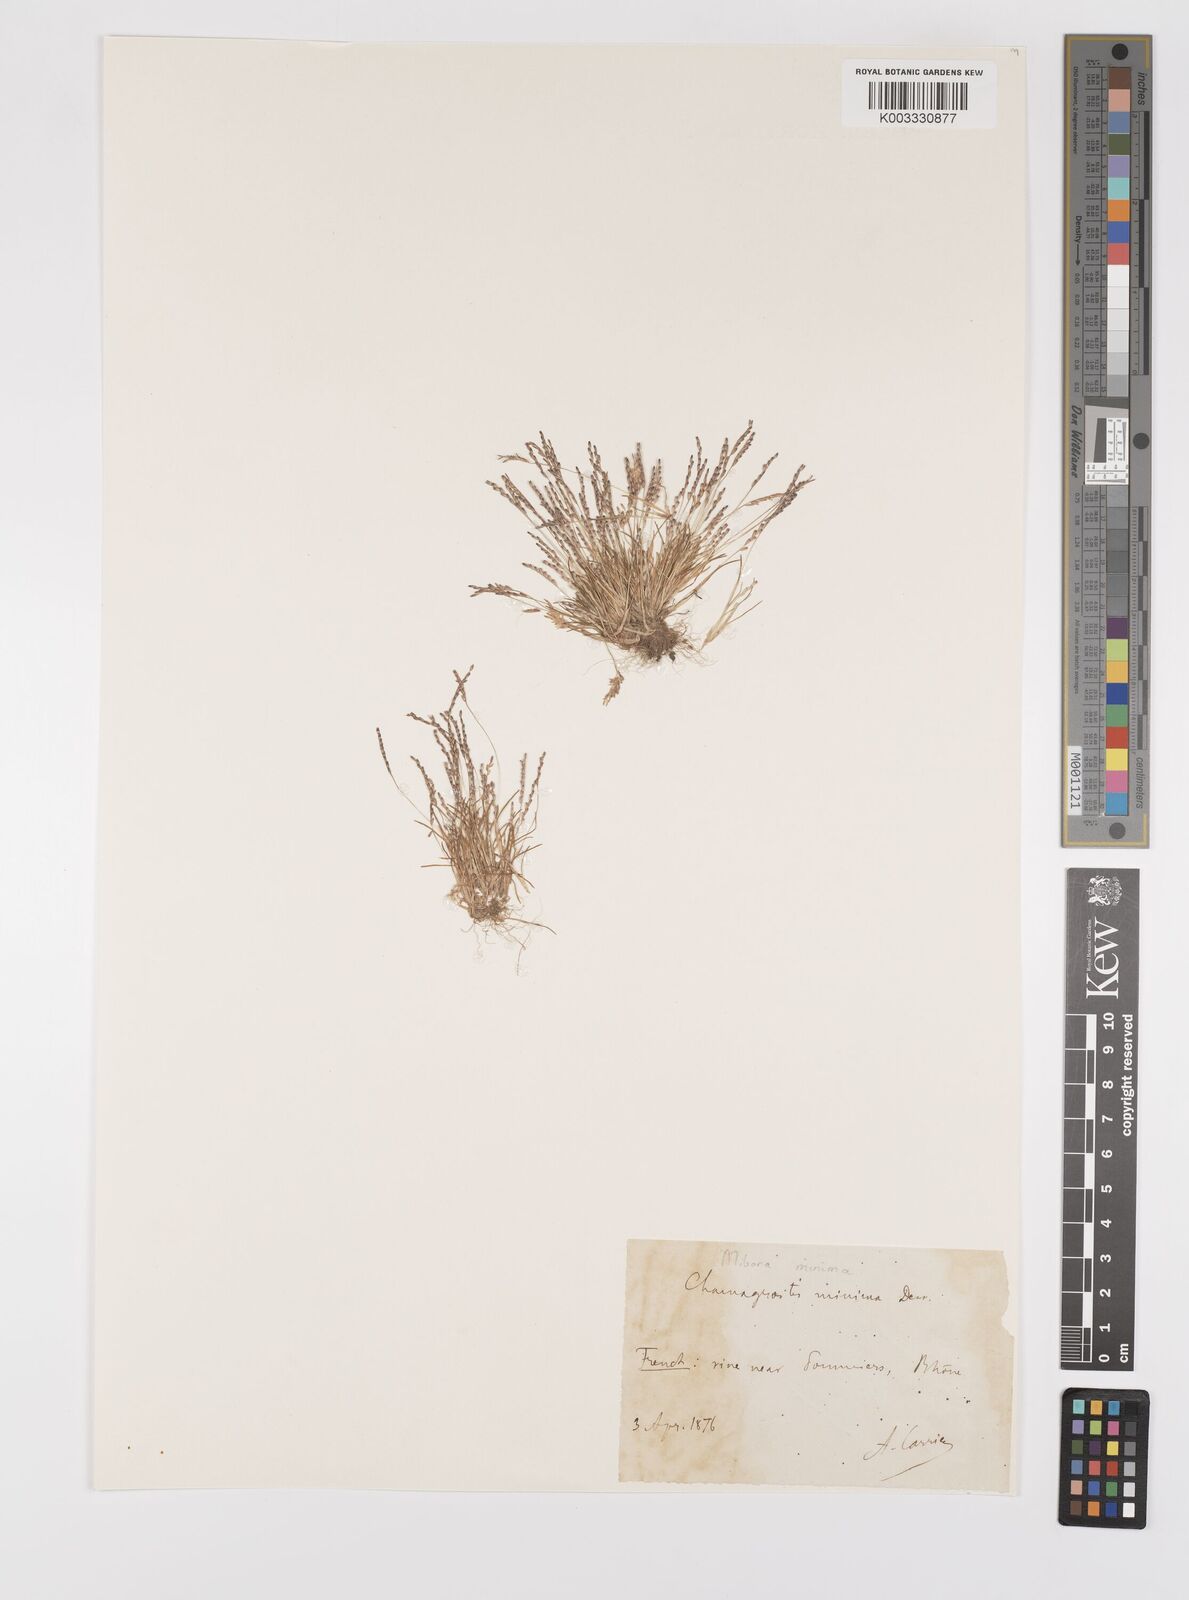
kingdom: Plantae
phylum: Tracheophyta
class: Liliopsida
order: Poales
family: Poaceae
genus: Mibora
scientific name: Mibora minima
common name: Early sand-grass
